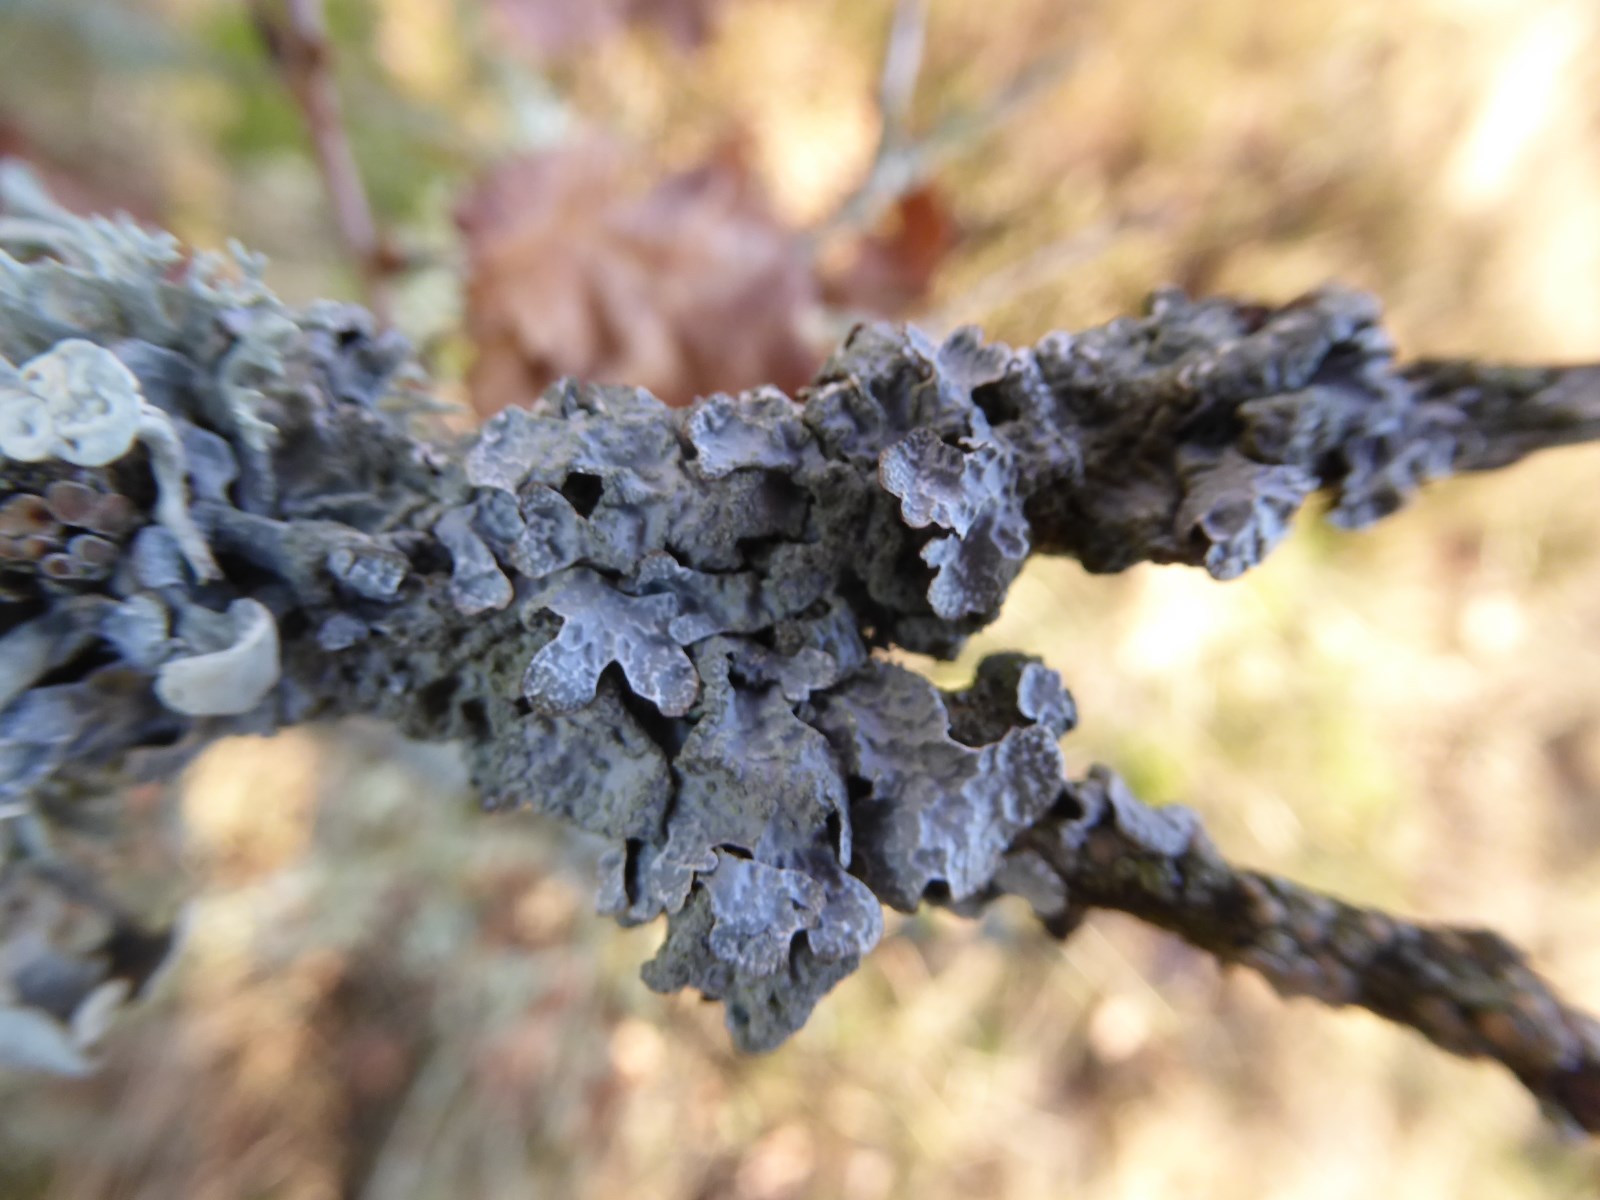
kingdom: Fungi
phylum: Ascomycota
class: Lecanoromycetes
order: Lecanorales
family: Parmeliaceae
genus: Parmelia
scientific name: Parmelia sulcata
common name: rynket skållav
